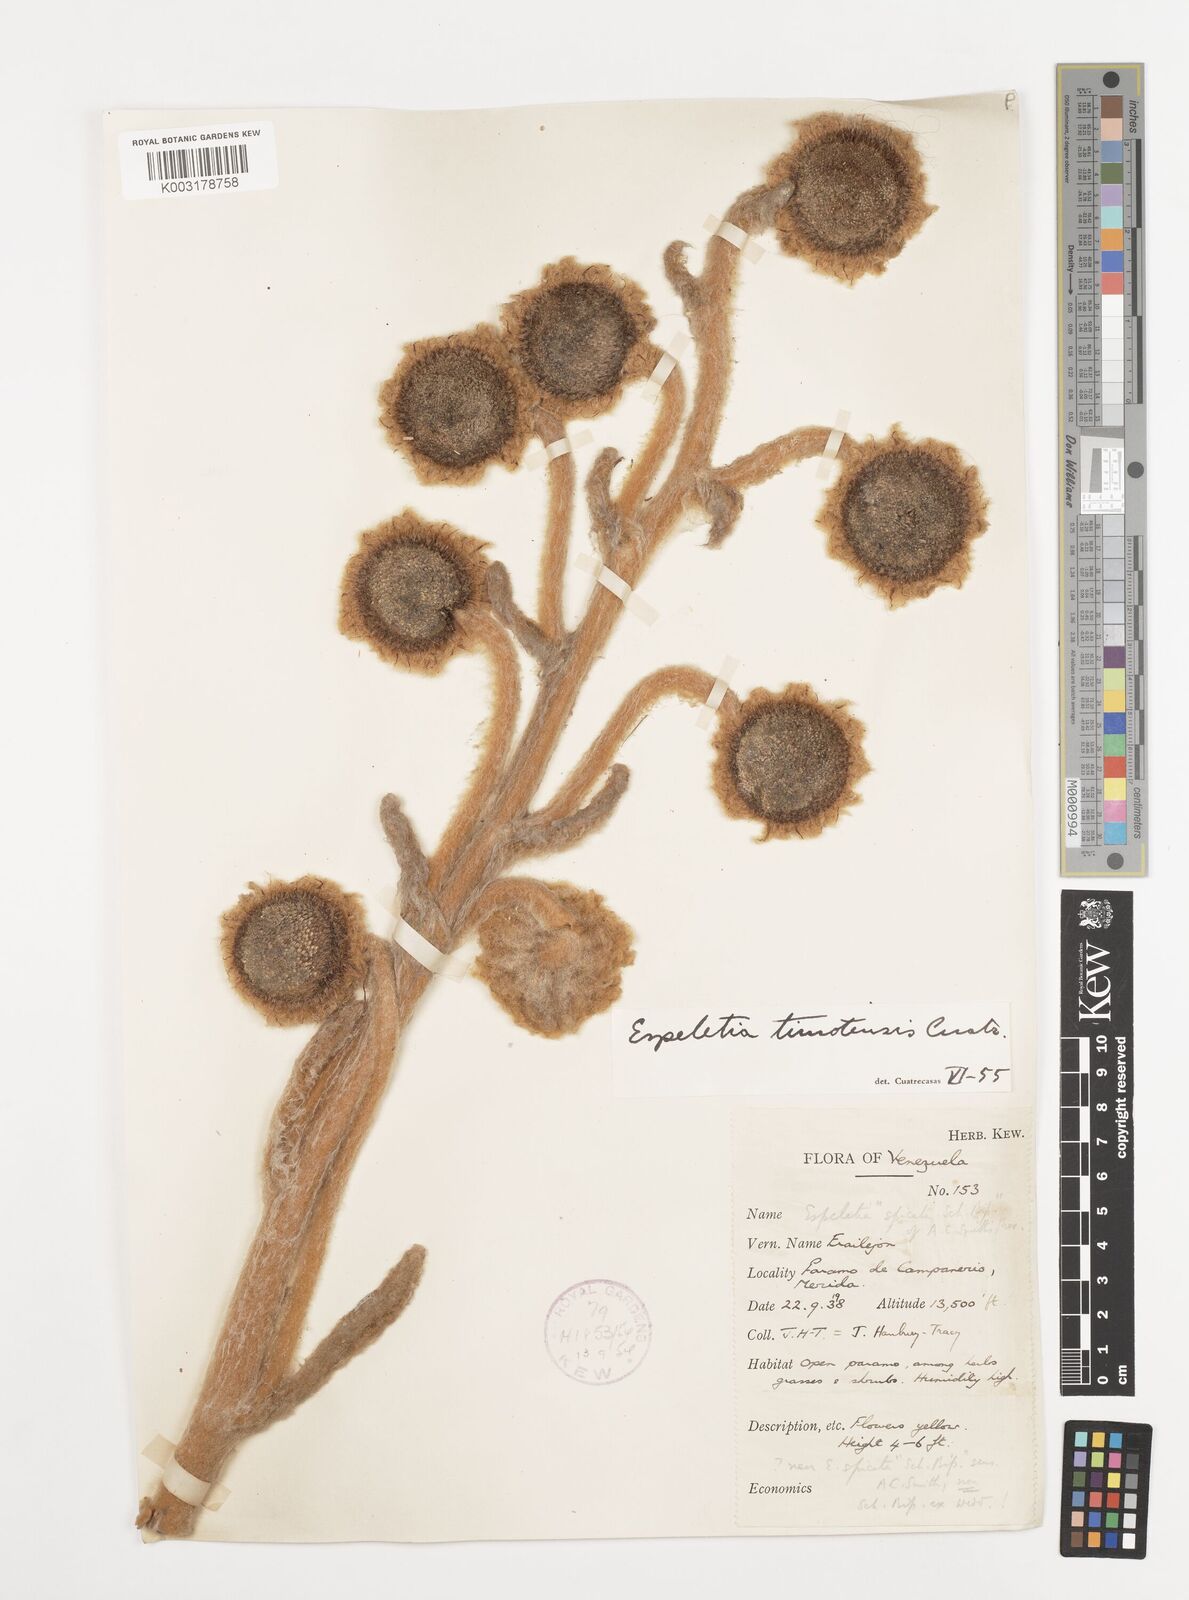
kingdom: Plantae
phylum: Tracheophyta
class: Magnoliopsida
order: Asterales
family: Asteraceae
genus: Espeletia
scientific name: Espeletia timotensis
